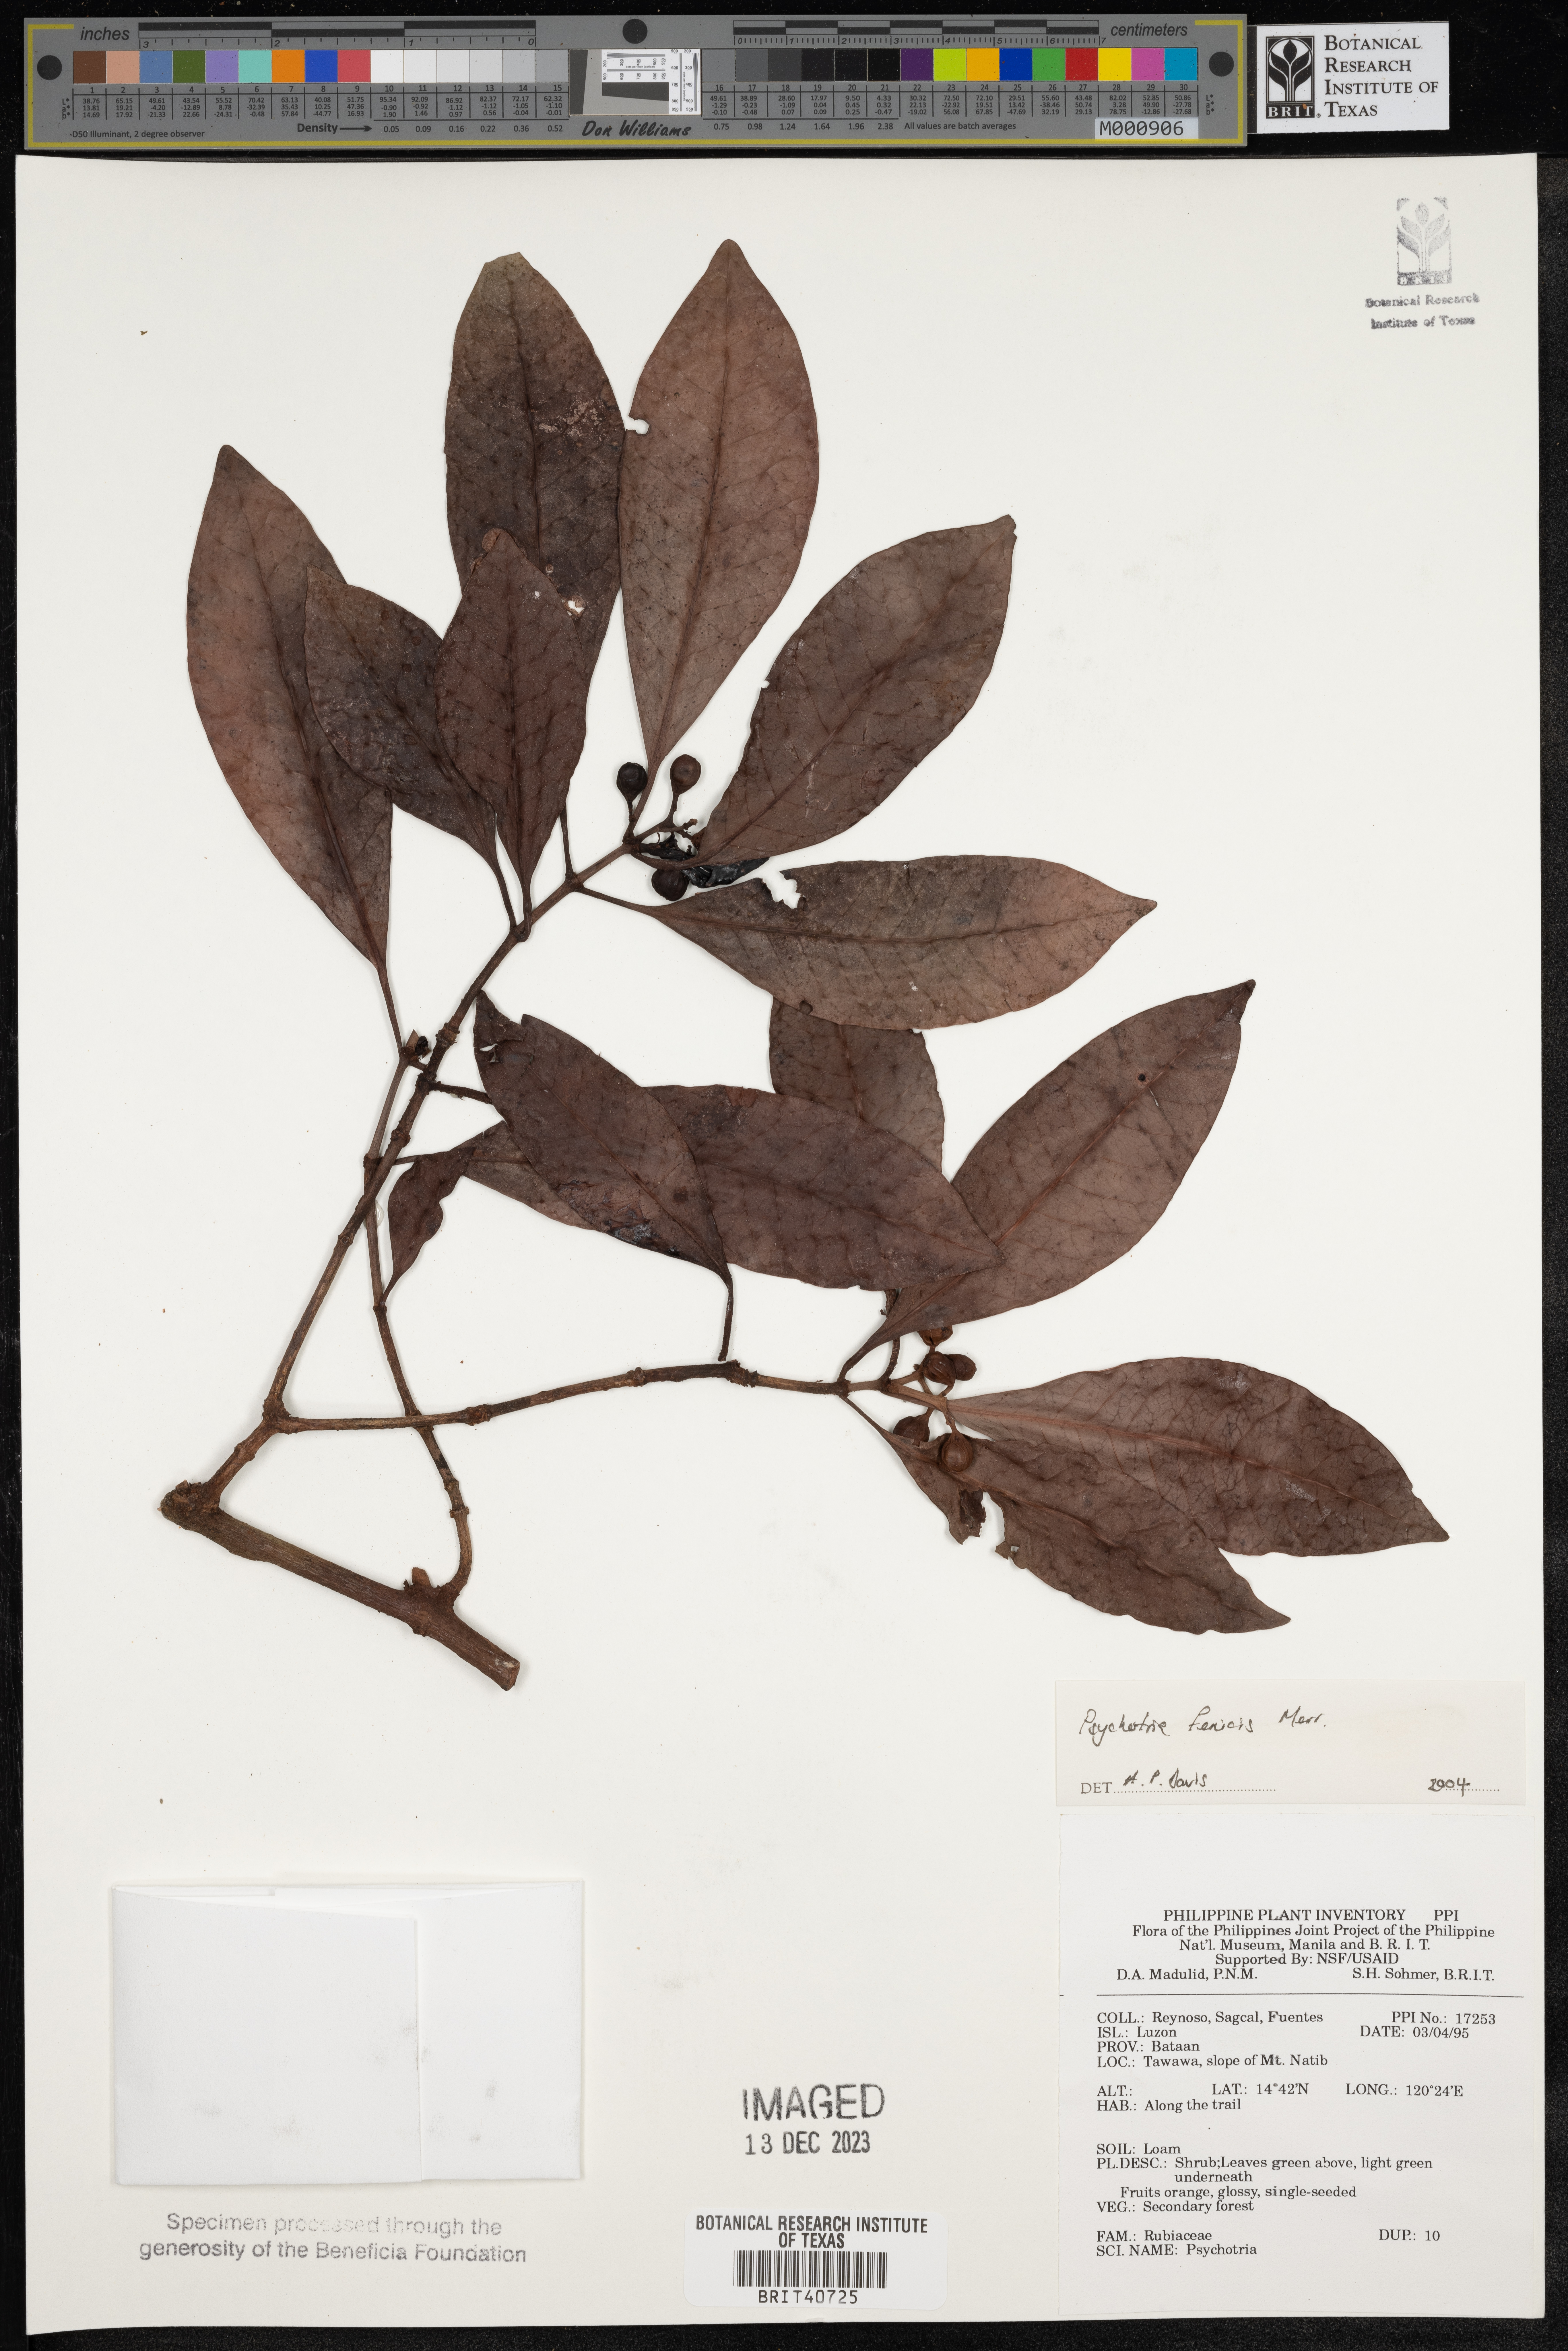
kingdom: Plantae
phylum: Tracheophyta
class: Magnoliopsida
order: Gentianales
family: Rubiaceae
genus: Psychotria
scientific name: Psychotria fenicis
